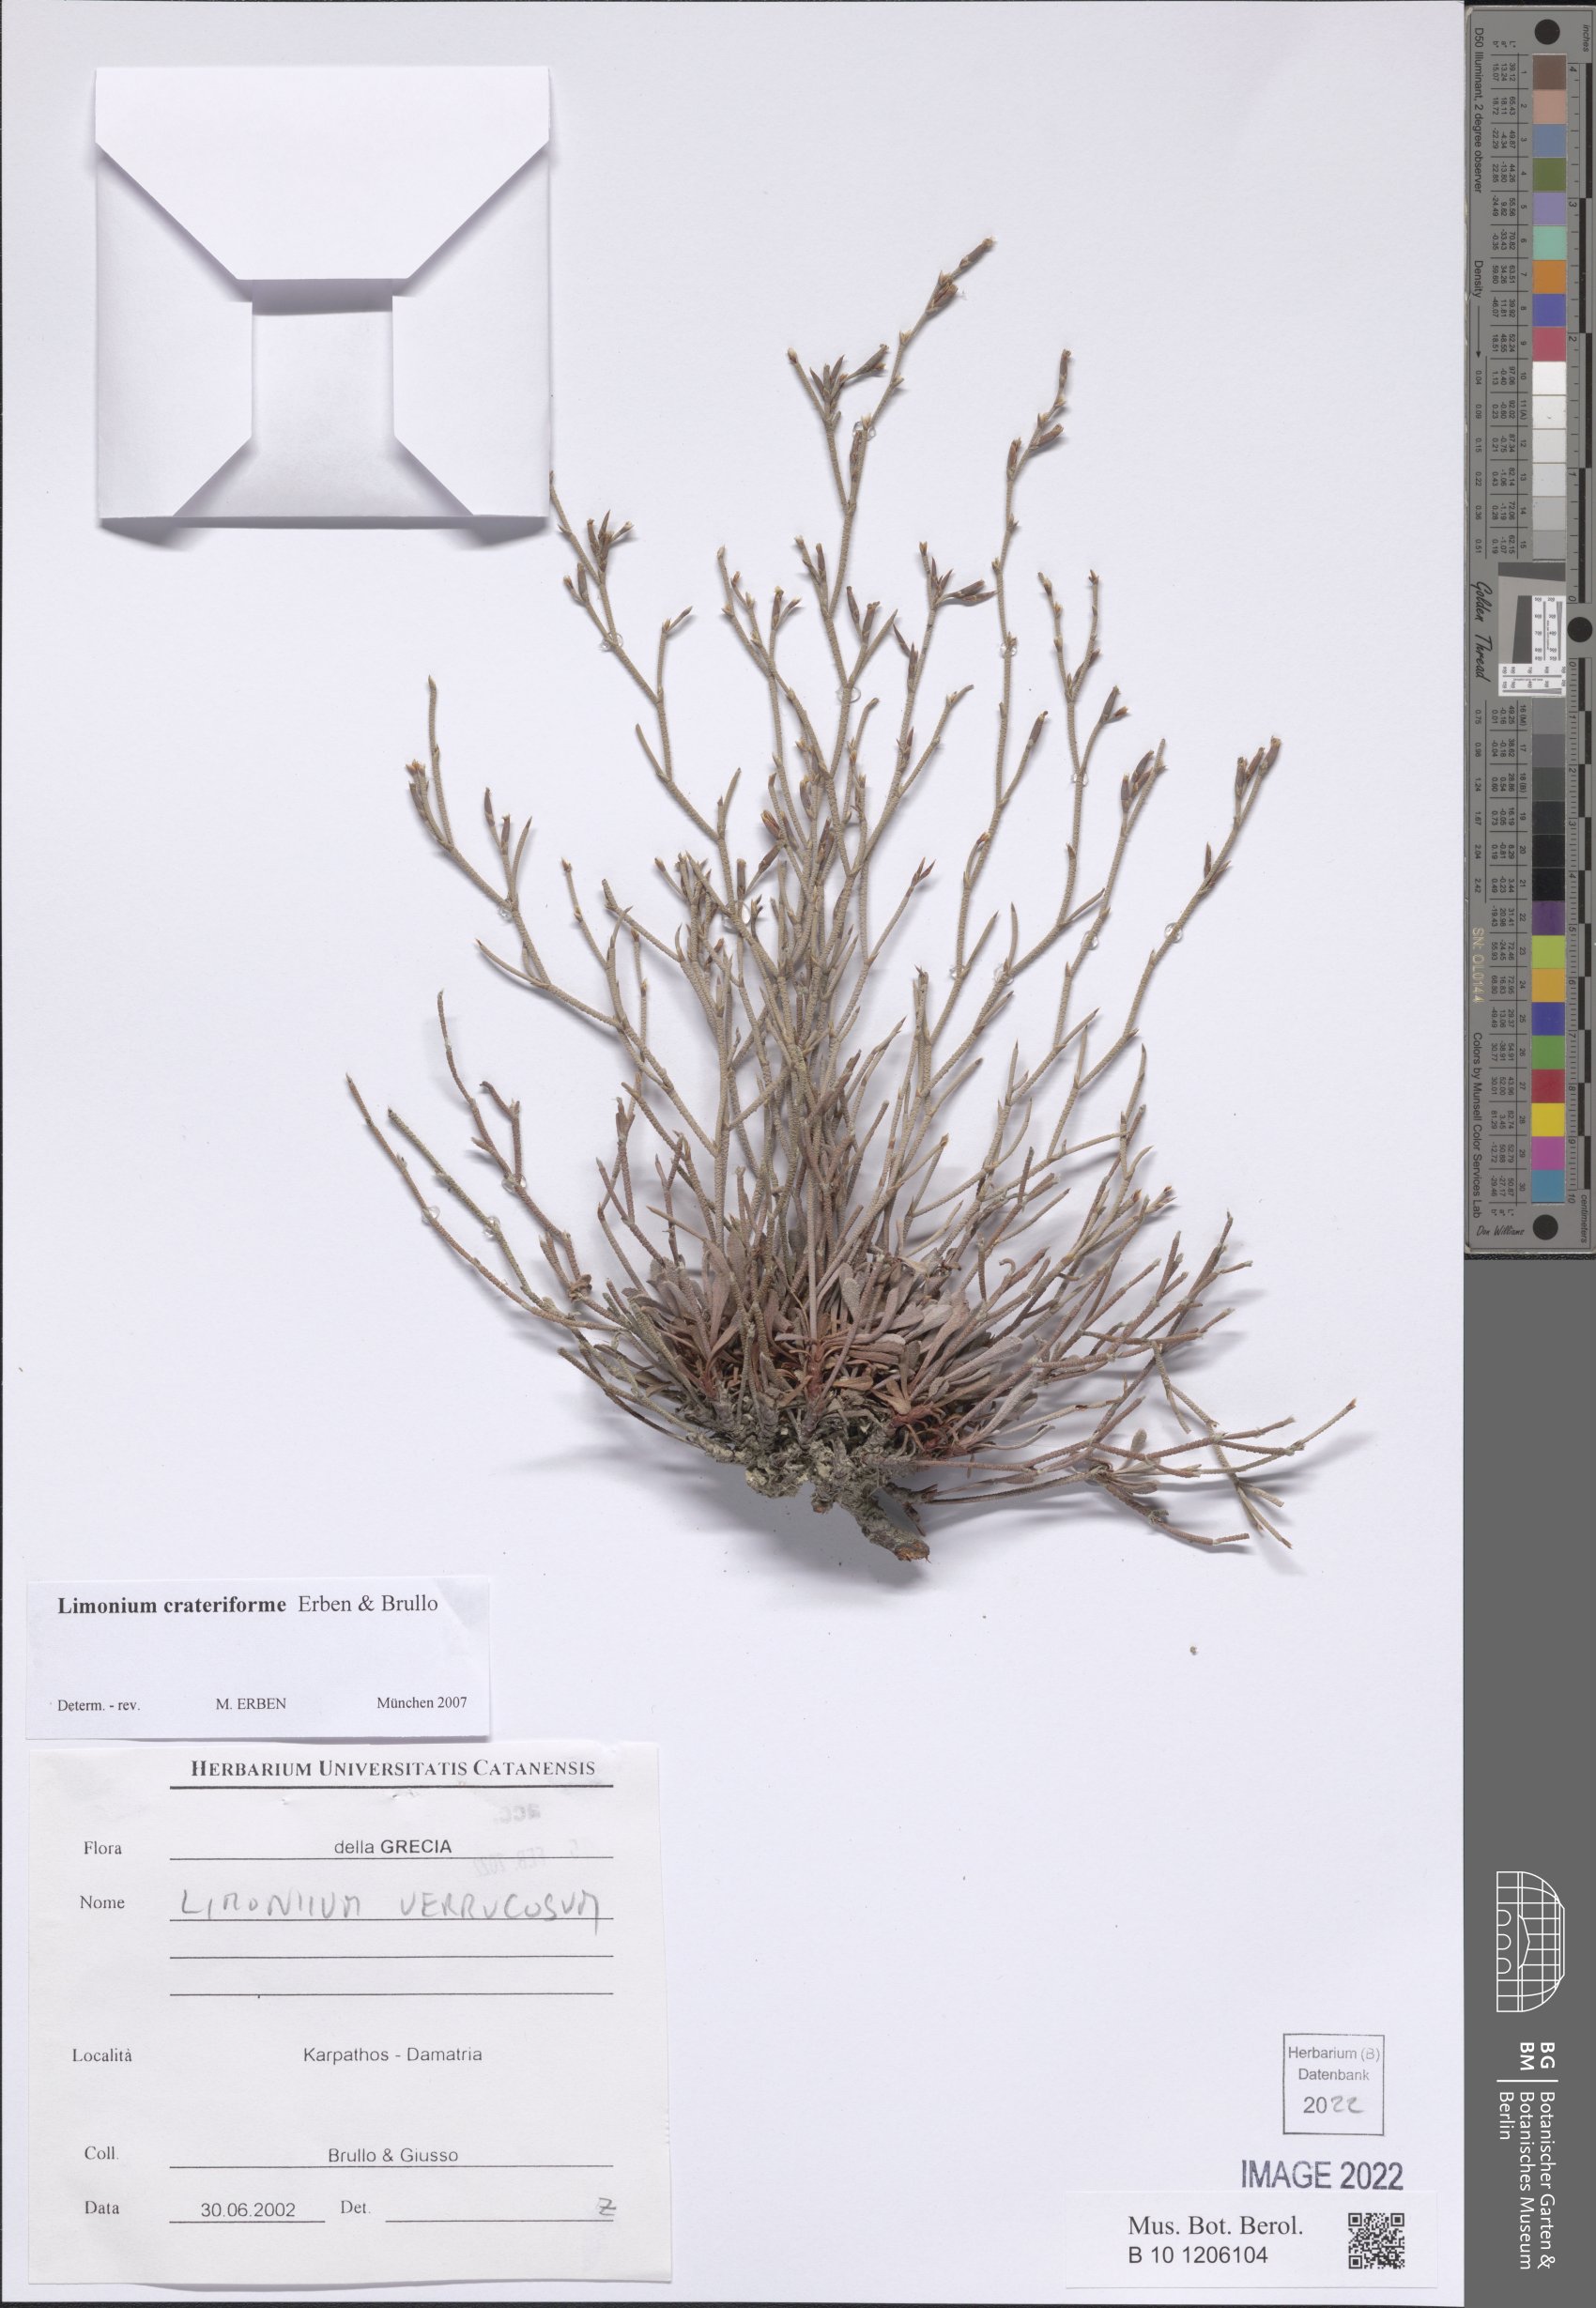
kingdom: Plantae
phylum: Tracheophyta
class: Magnoliopsida
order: Caryophyllales
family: Plumbaginaceae
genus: Limonium
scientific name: Limonium crateriforme
